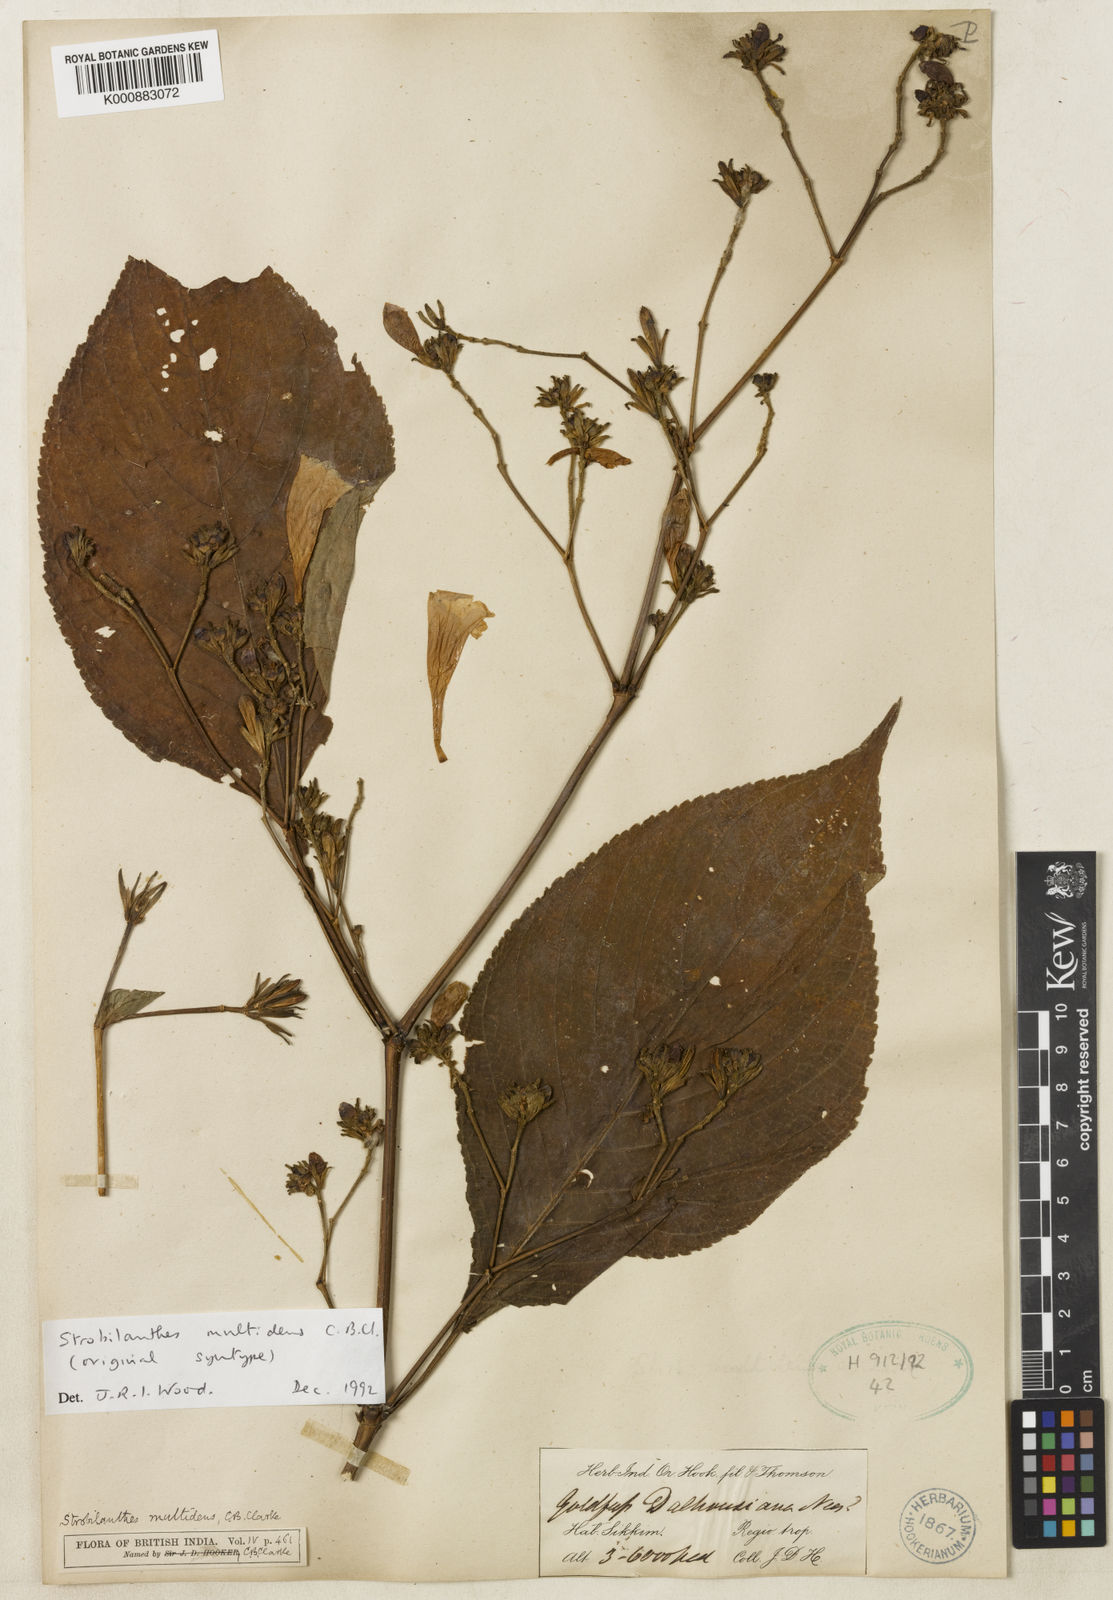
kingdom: Plantae
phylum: Tracheophyta
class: Magnoliopsida
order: Lamiales
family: Acanthaceae
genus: Strobilanthes
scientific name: Strobilanthes multidens
